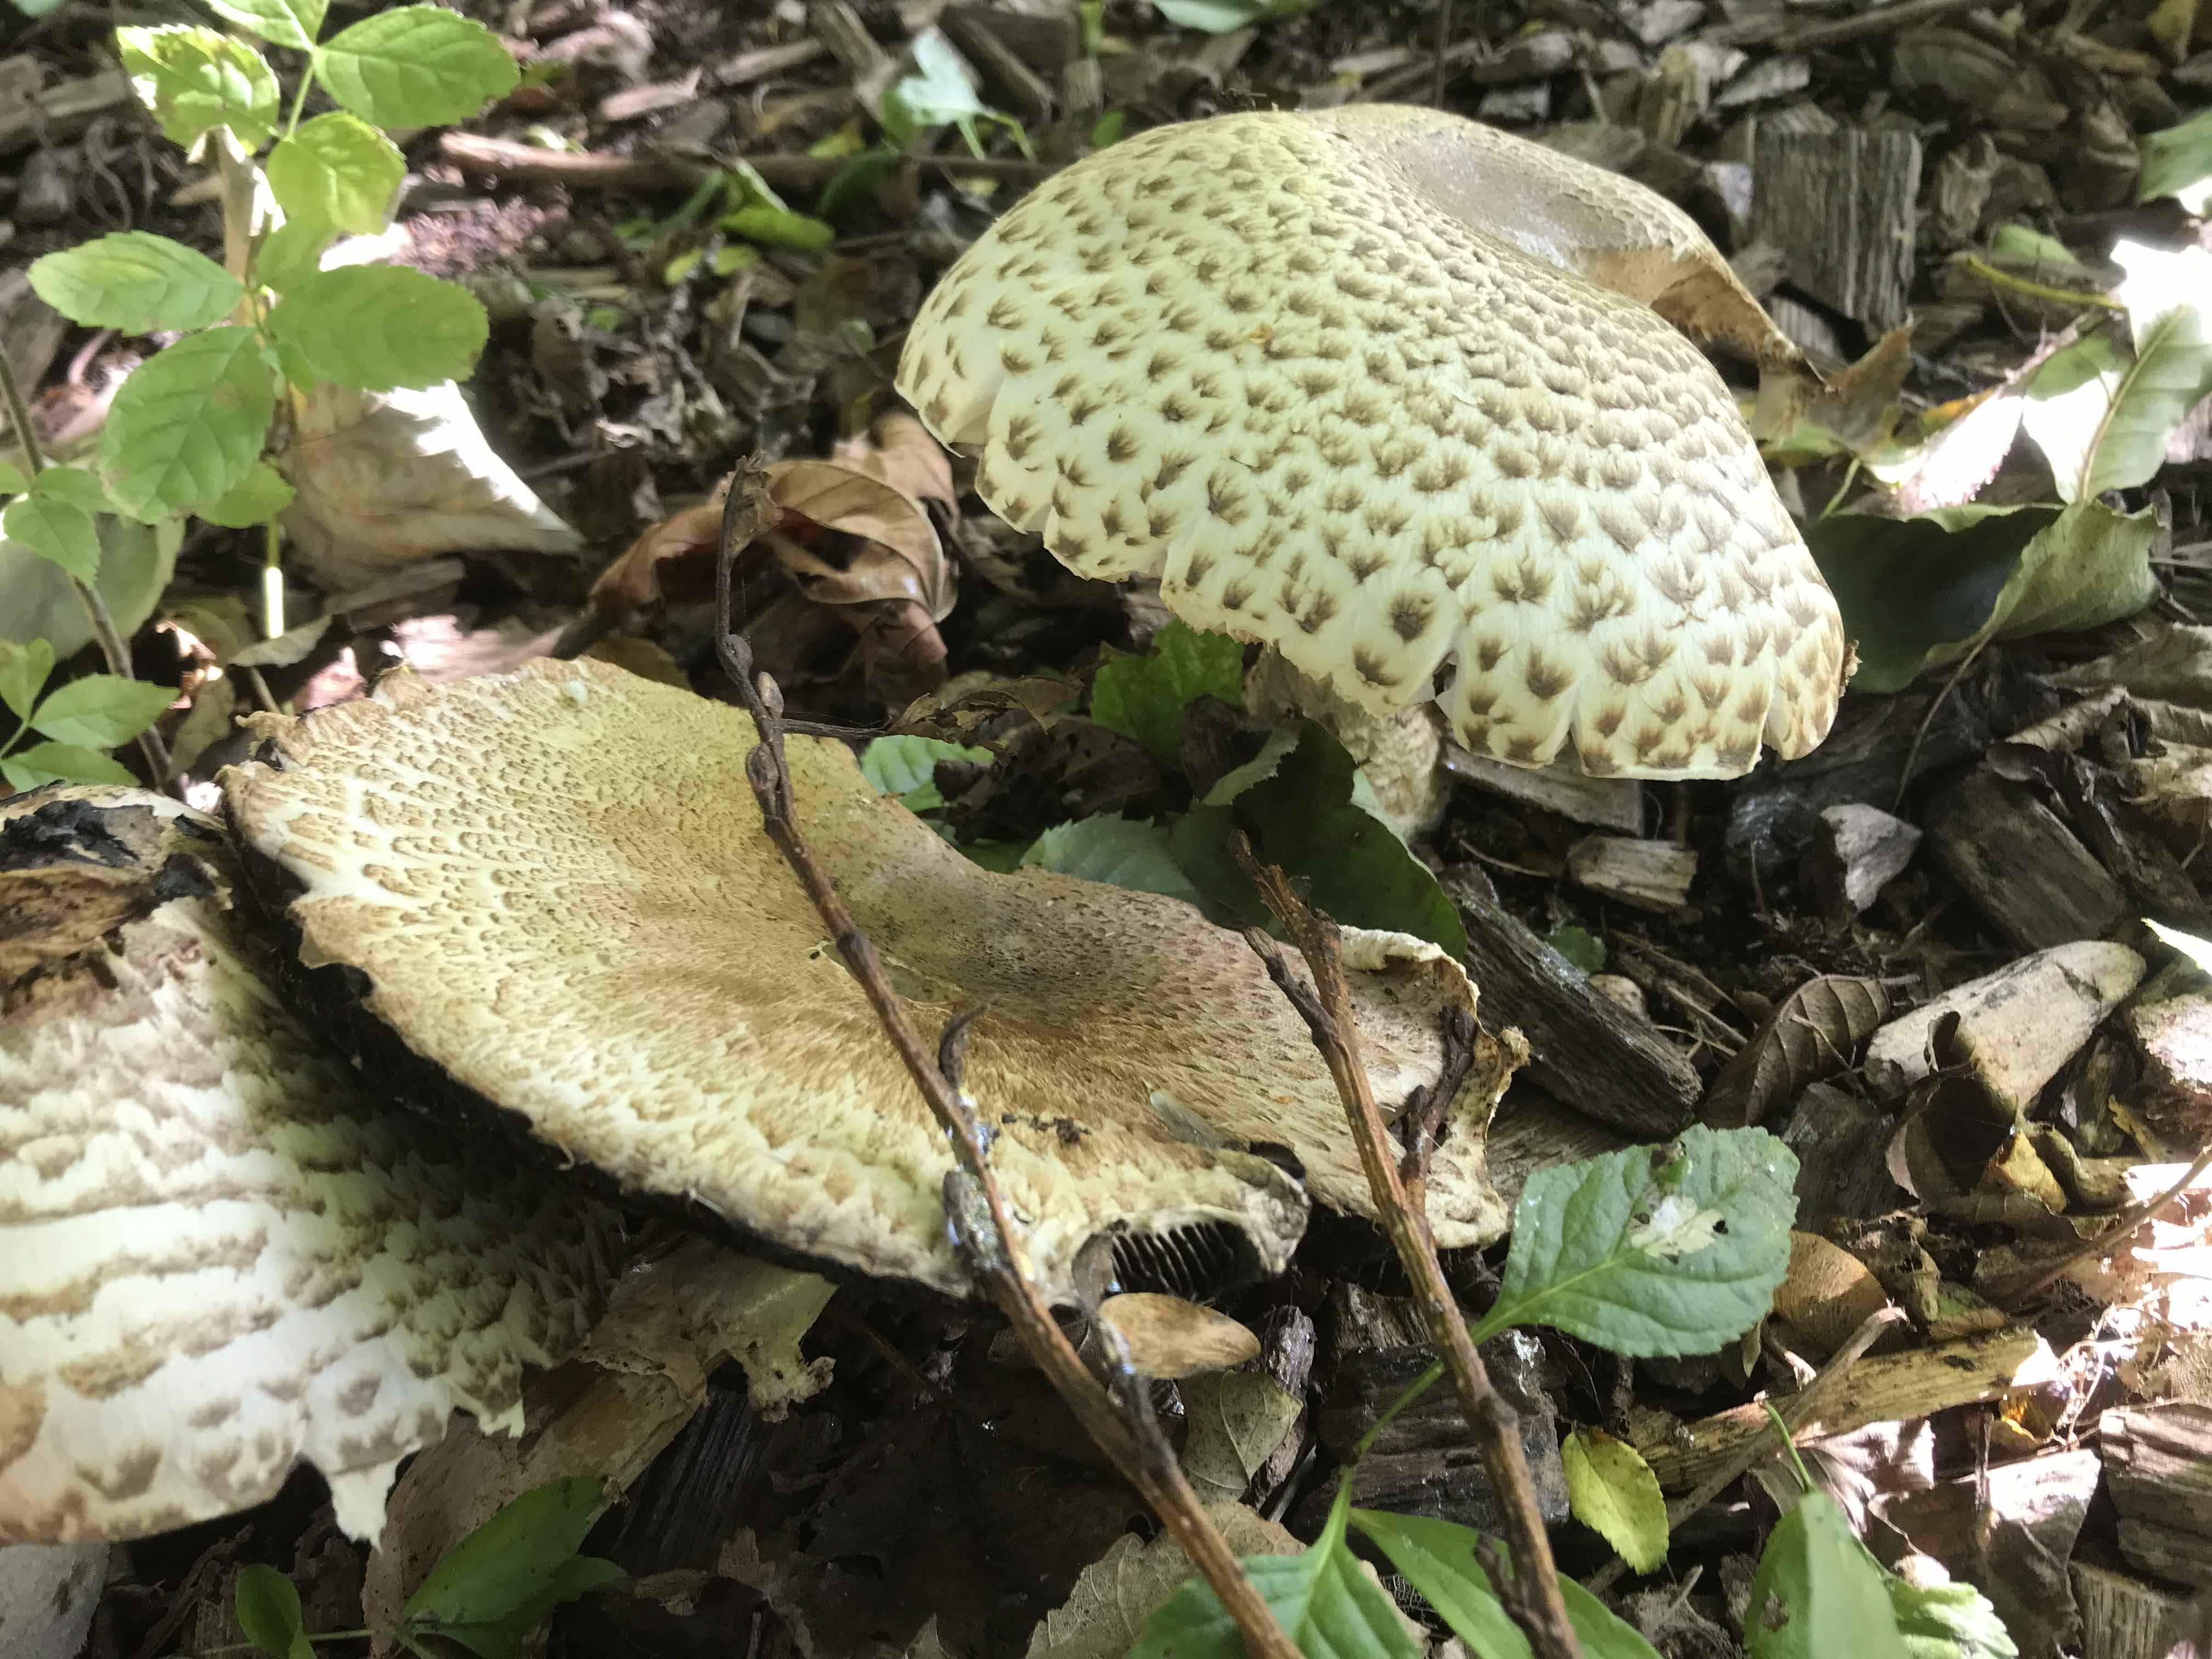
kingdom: Fungi
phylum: Basidiomycota
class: Agaricomycetes
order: Agaricales
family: Agaricaceae
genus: Agaricus
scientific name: Agaricus augustus
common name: prægtig champignon
